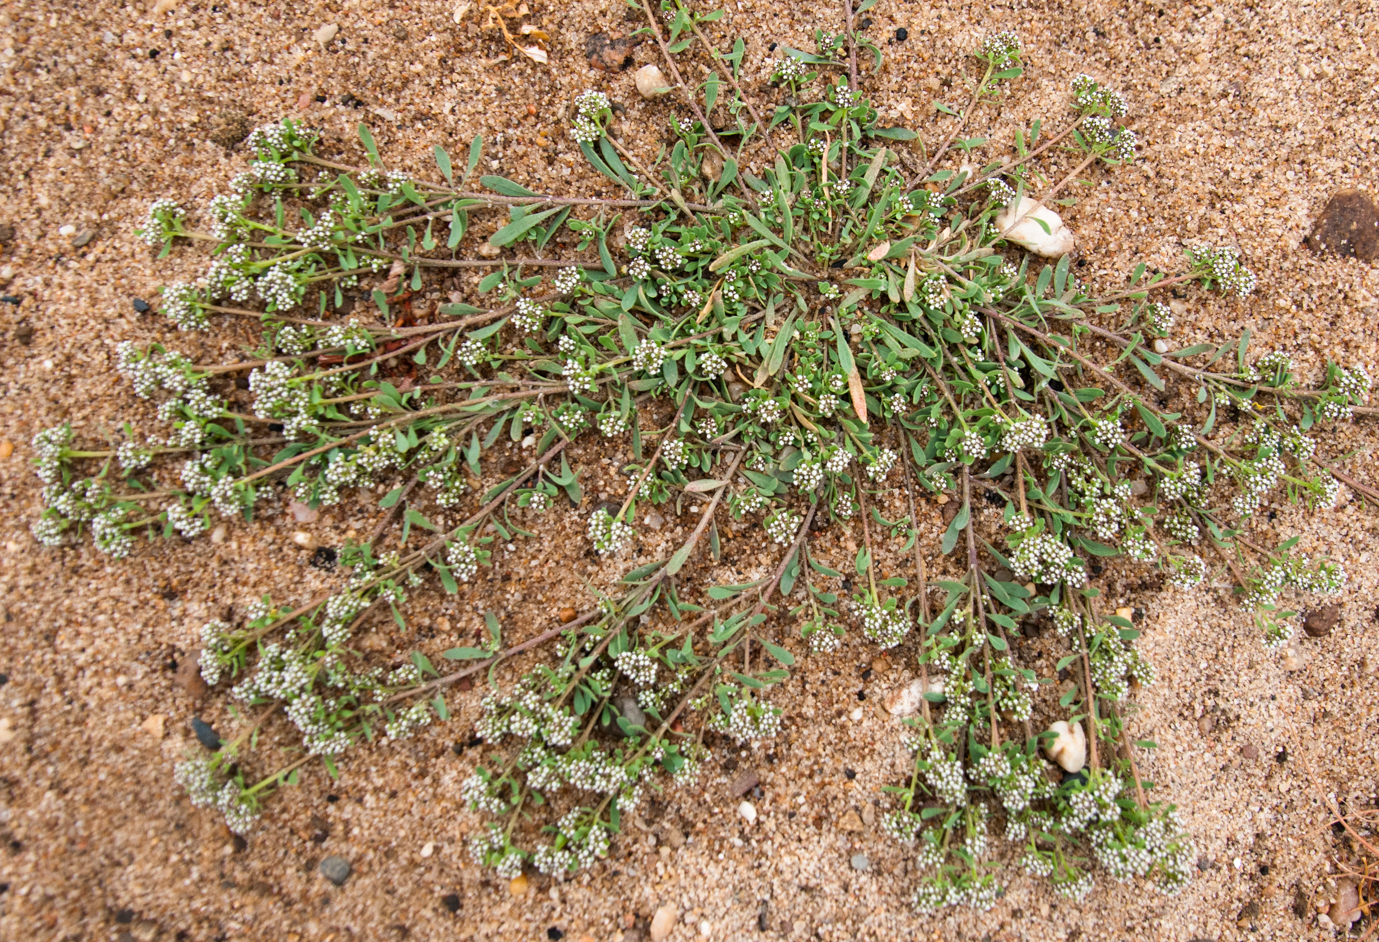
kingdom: Plantae
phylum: Tracheophyta
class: Magnoliopsida
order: Caryophyllales
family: Caryophyllaceae
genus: Corrigiola
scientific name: Corrigiola litoralis
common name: Strapwort
